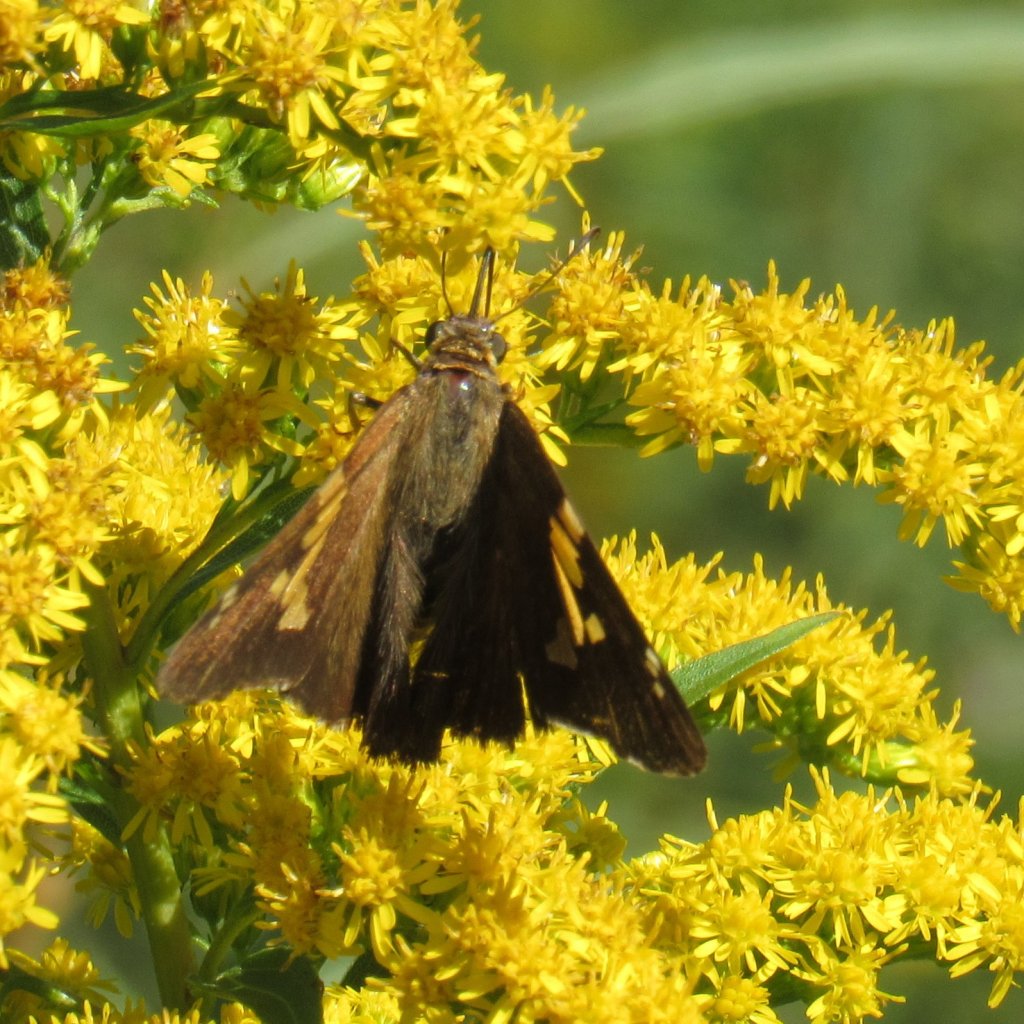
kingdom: Animalia
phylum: Arthropoda
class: Insecta
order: Lepidoptera
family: Hesperiidae
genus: Epargyreus
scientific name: Epargyreus clarus
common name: Silver-spotted Skipper
